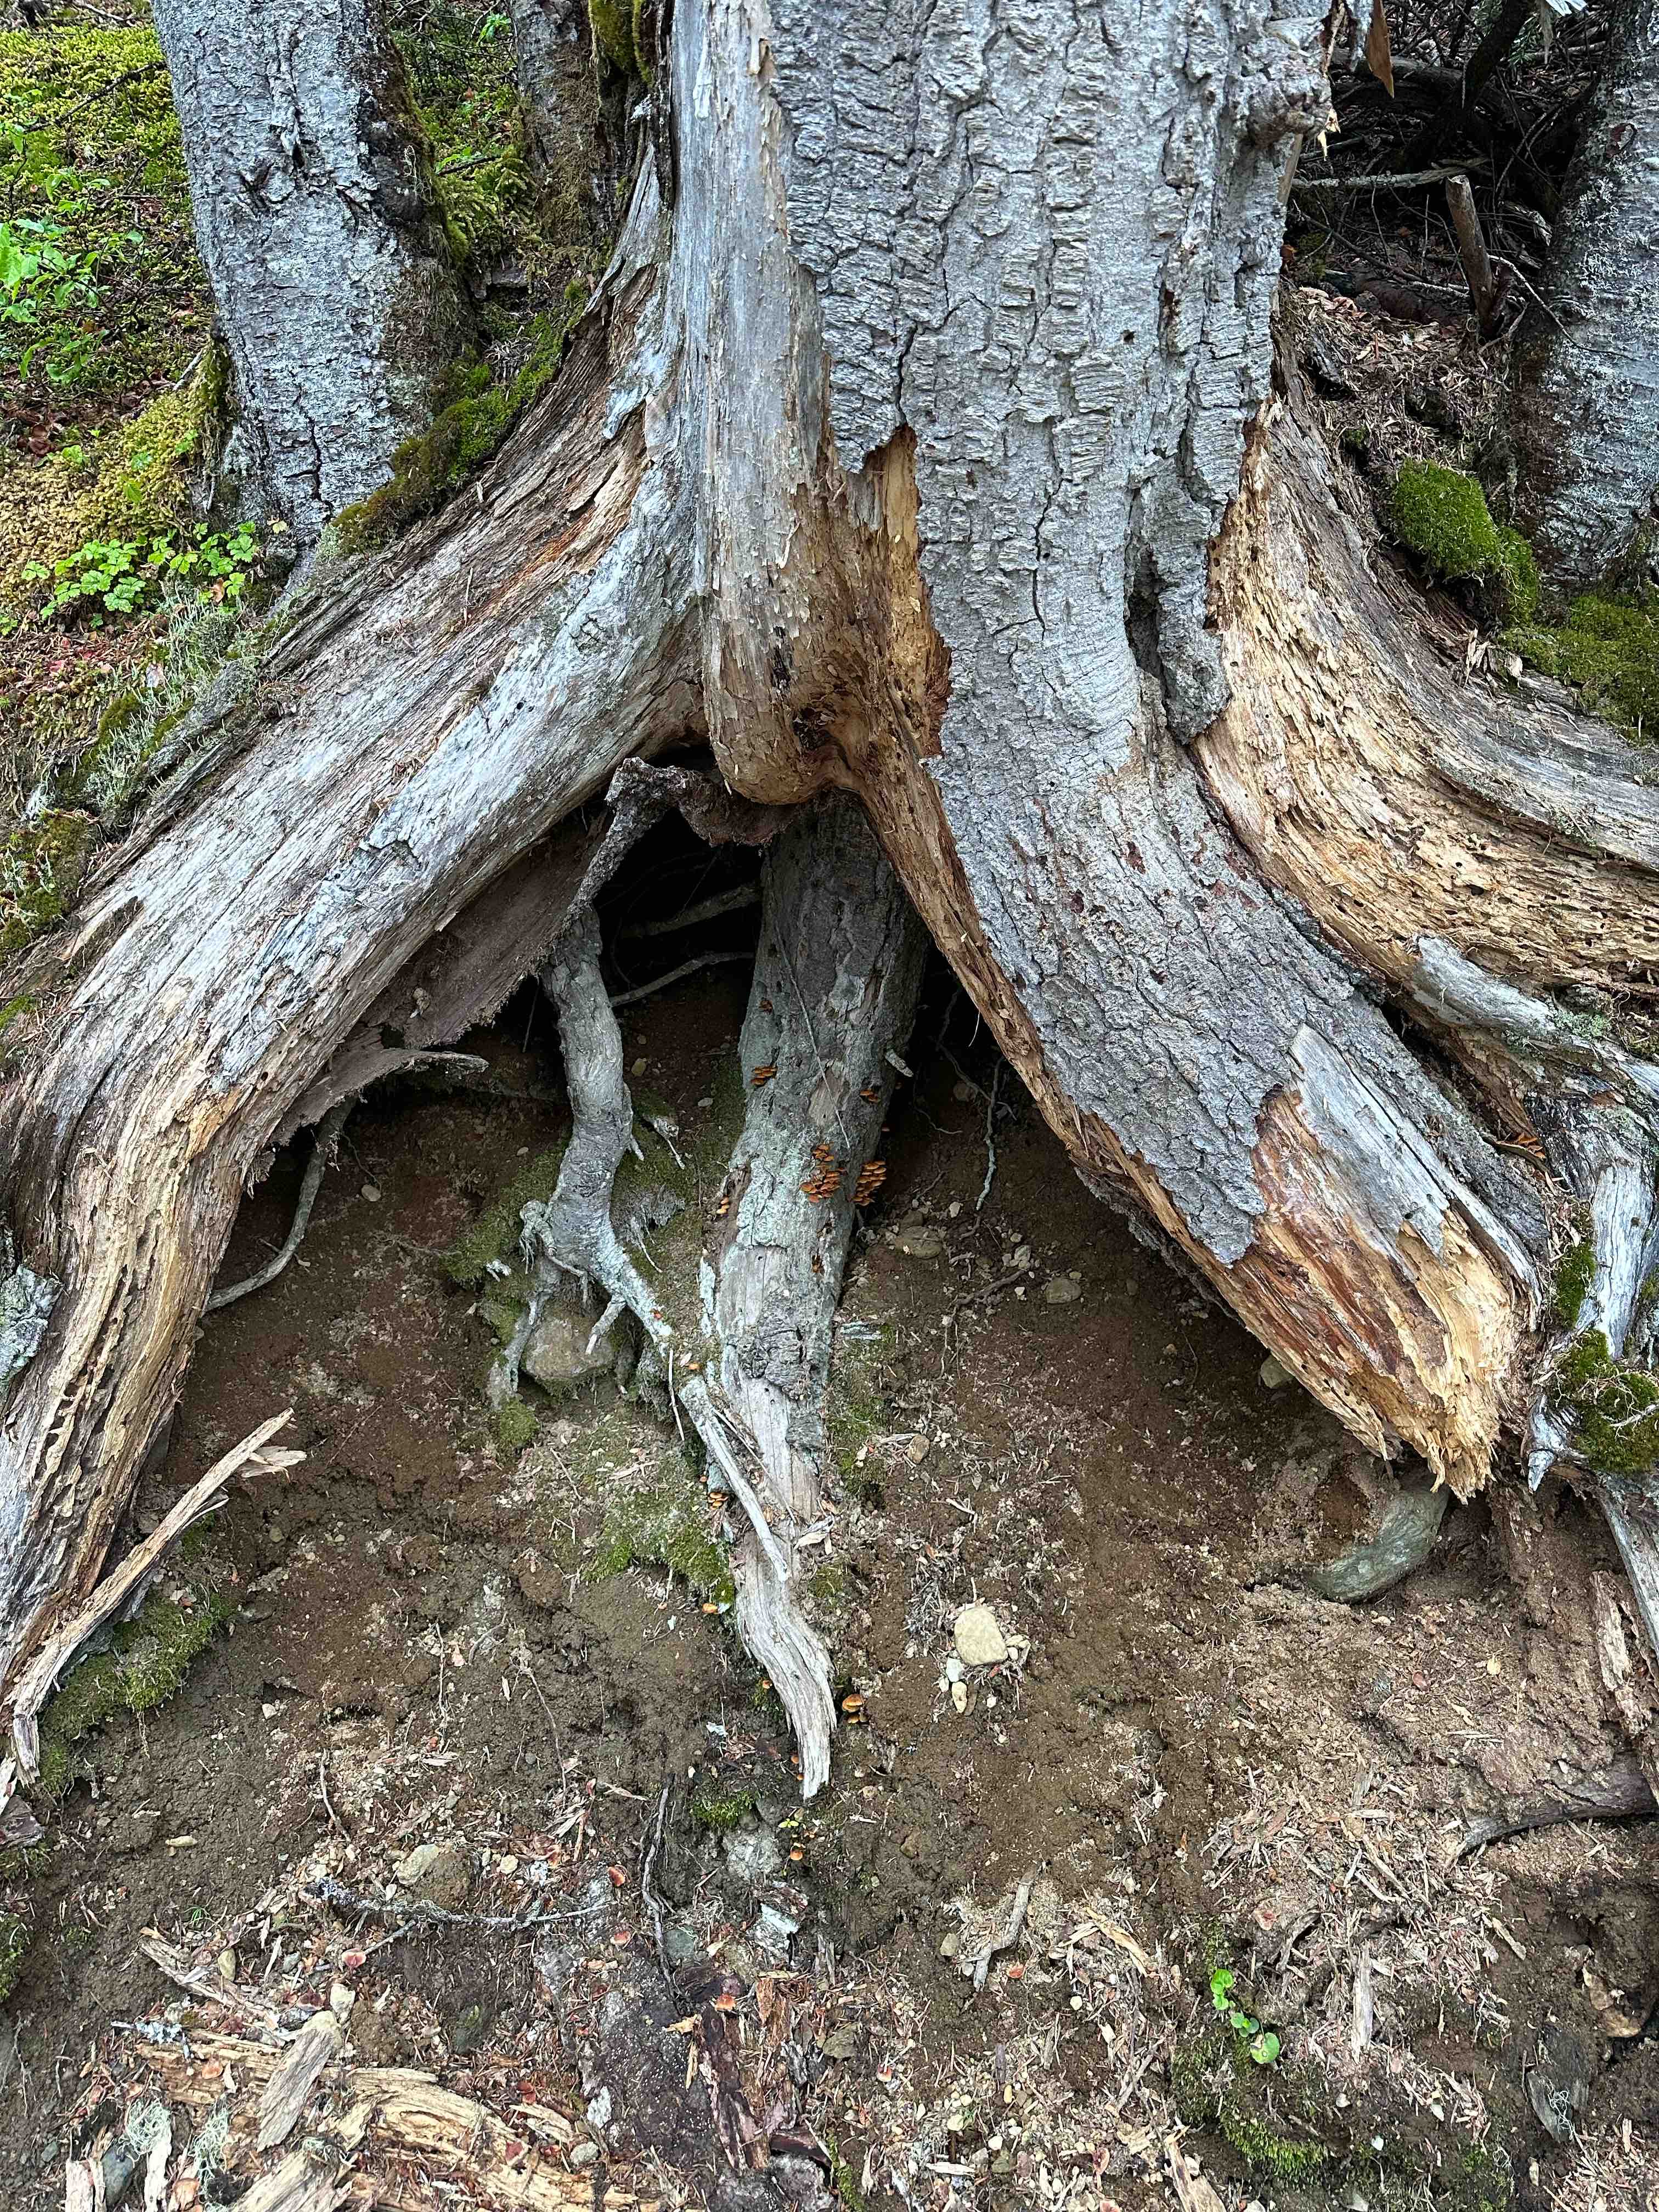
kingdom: Fungi
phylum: Basidiomycota
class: Agaricomycetes
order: Agaricales
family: Mycenaceae
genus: Xeromphalina
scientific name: Xeromphalina
